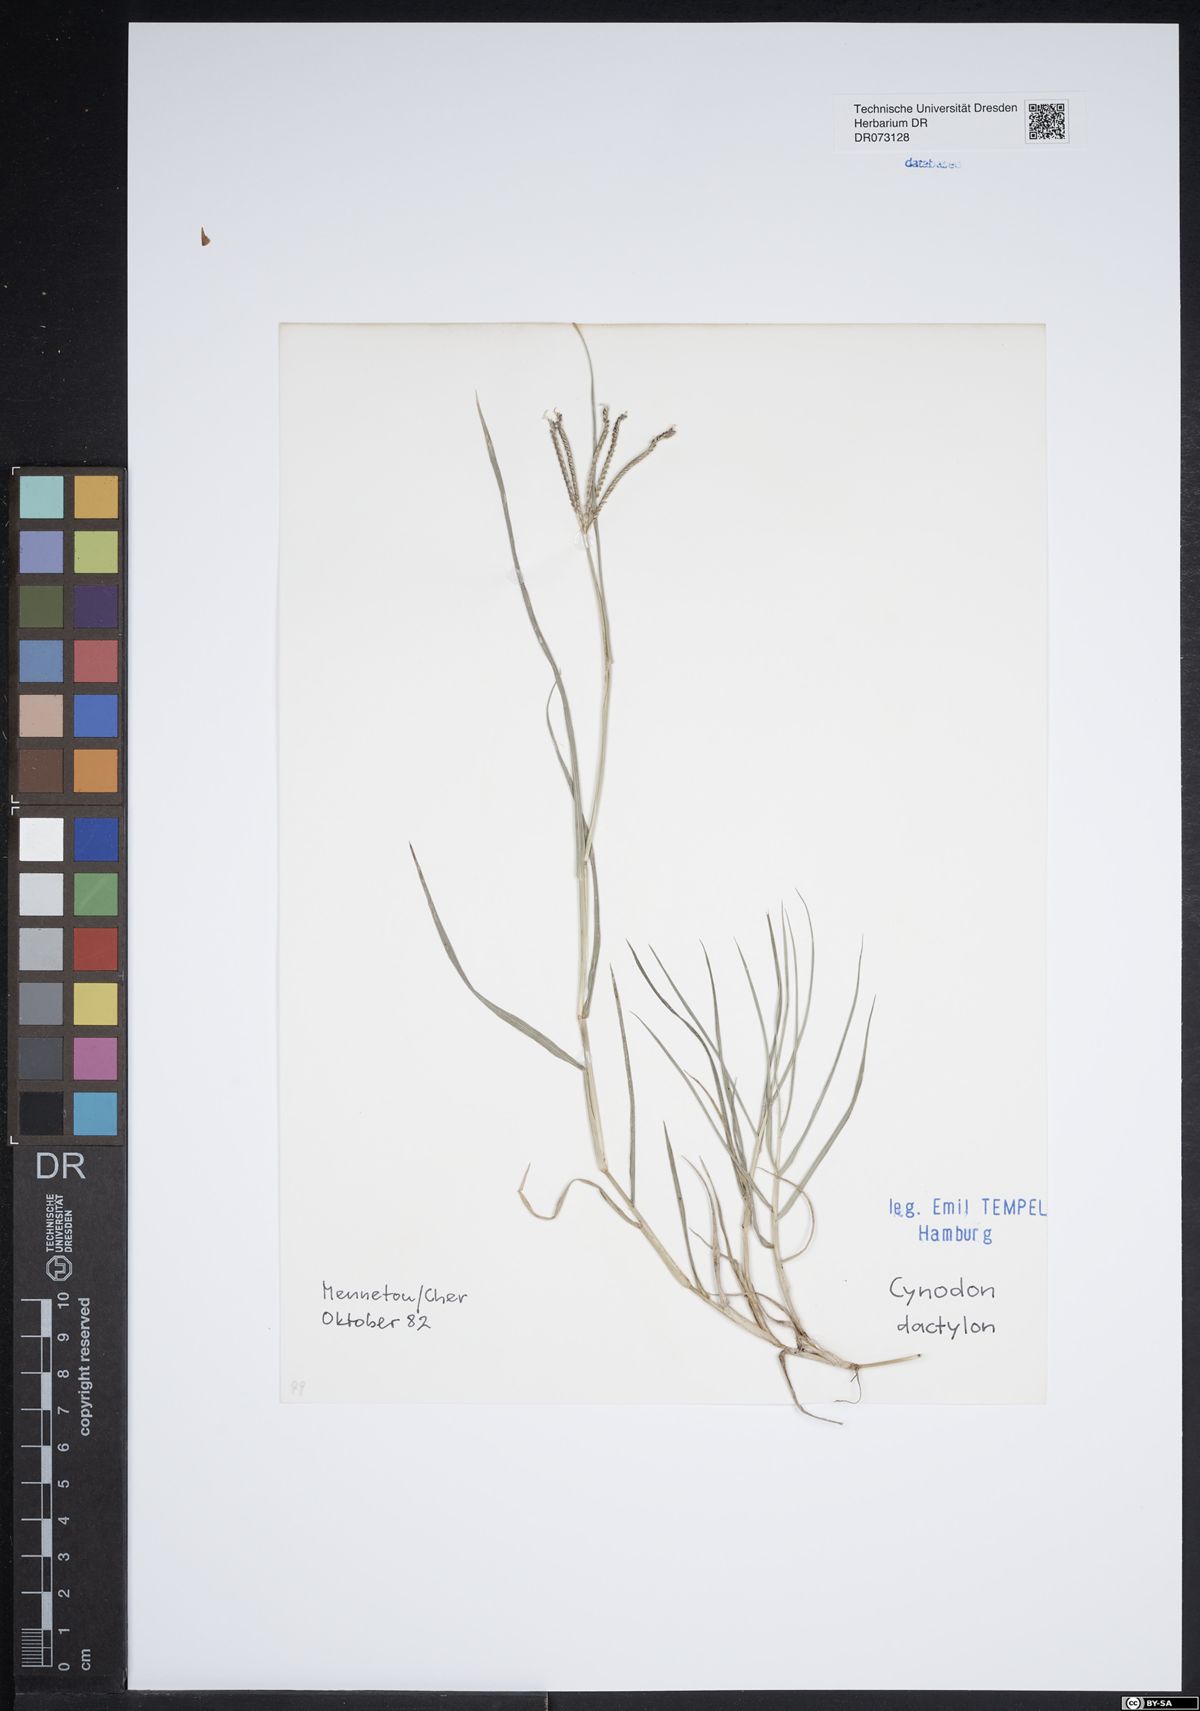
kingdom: Plantae
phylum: Tracheophyta
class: Liliopsida
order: Poales
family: Poaceae
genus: Cynodon
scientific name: Cynodon dactylon
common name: Bermuda grass
